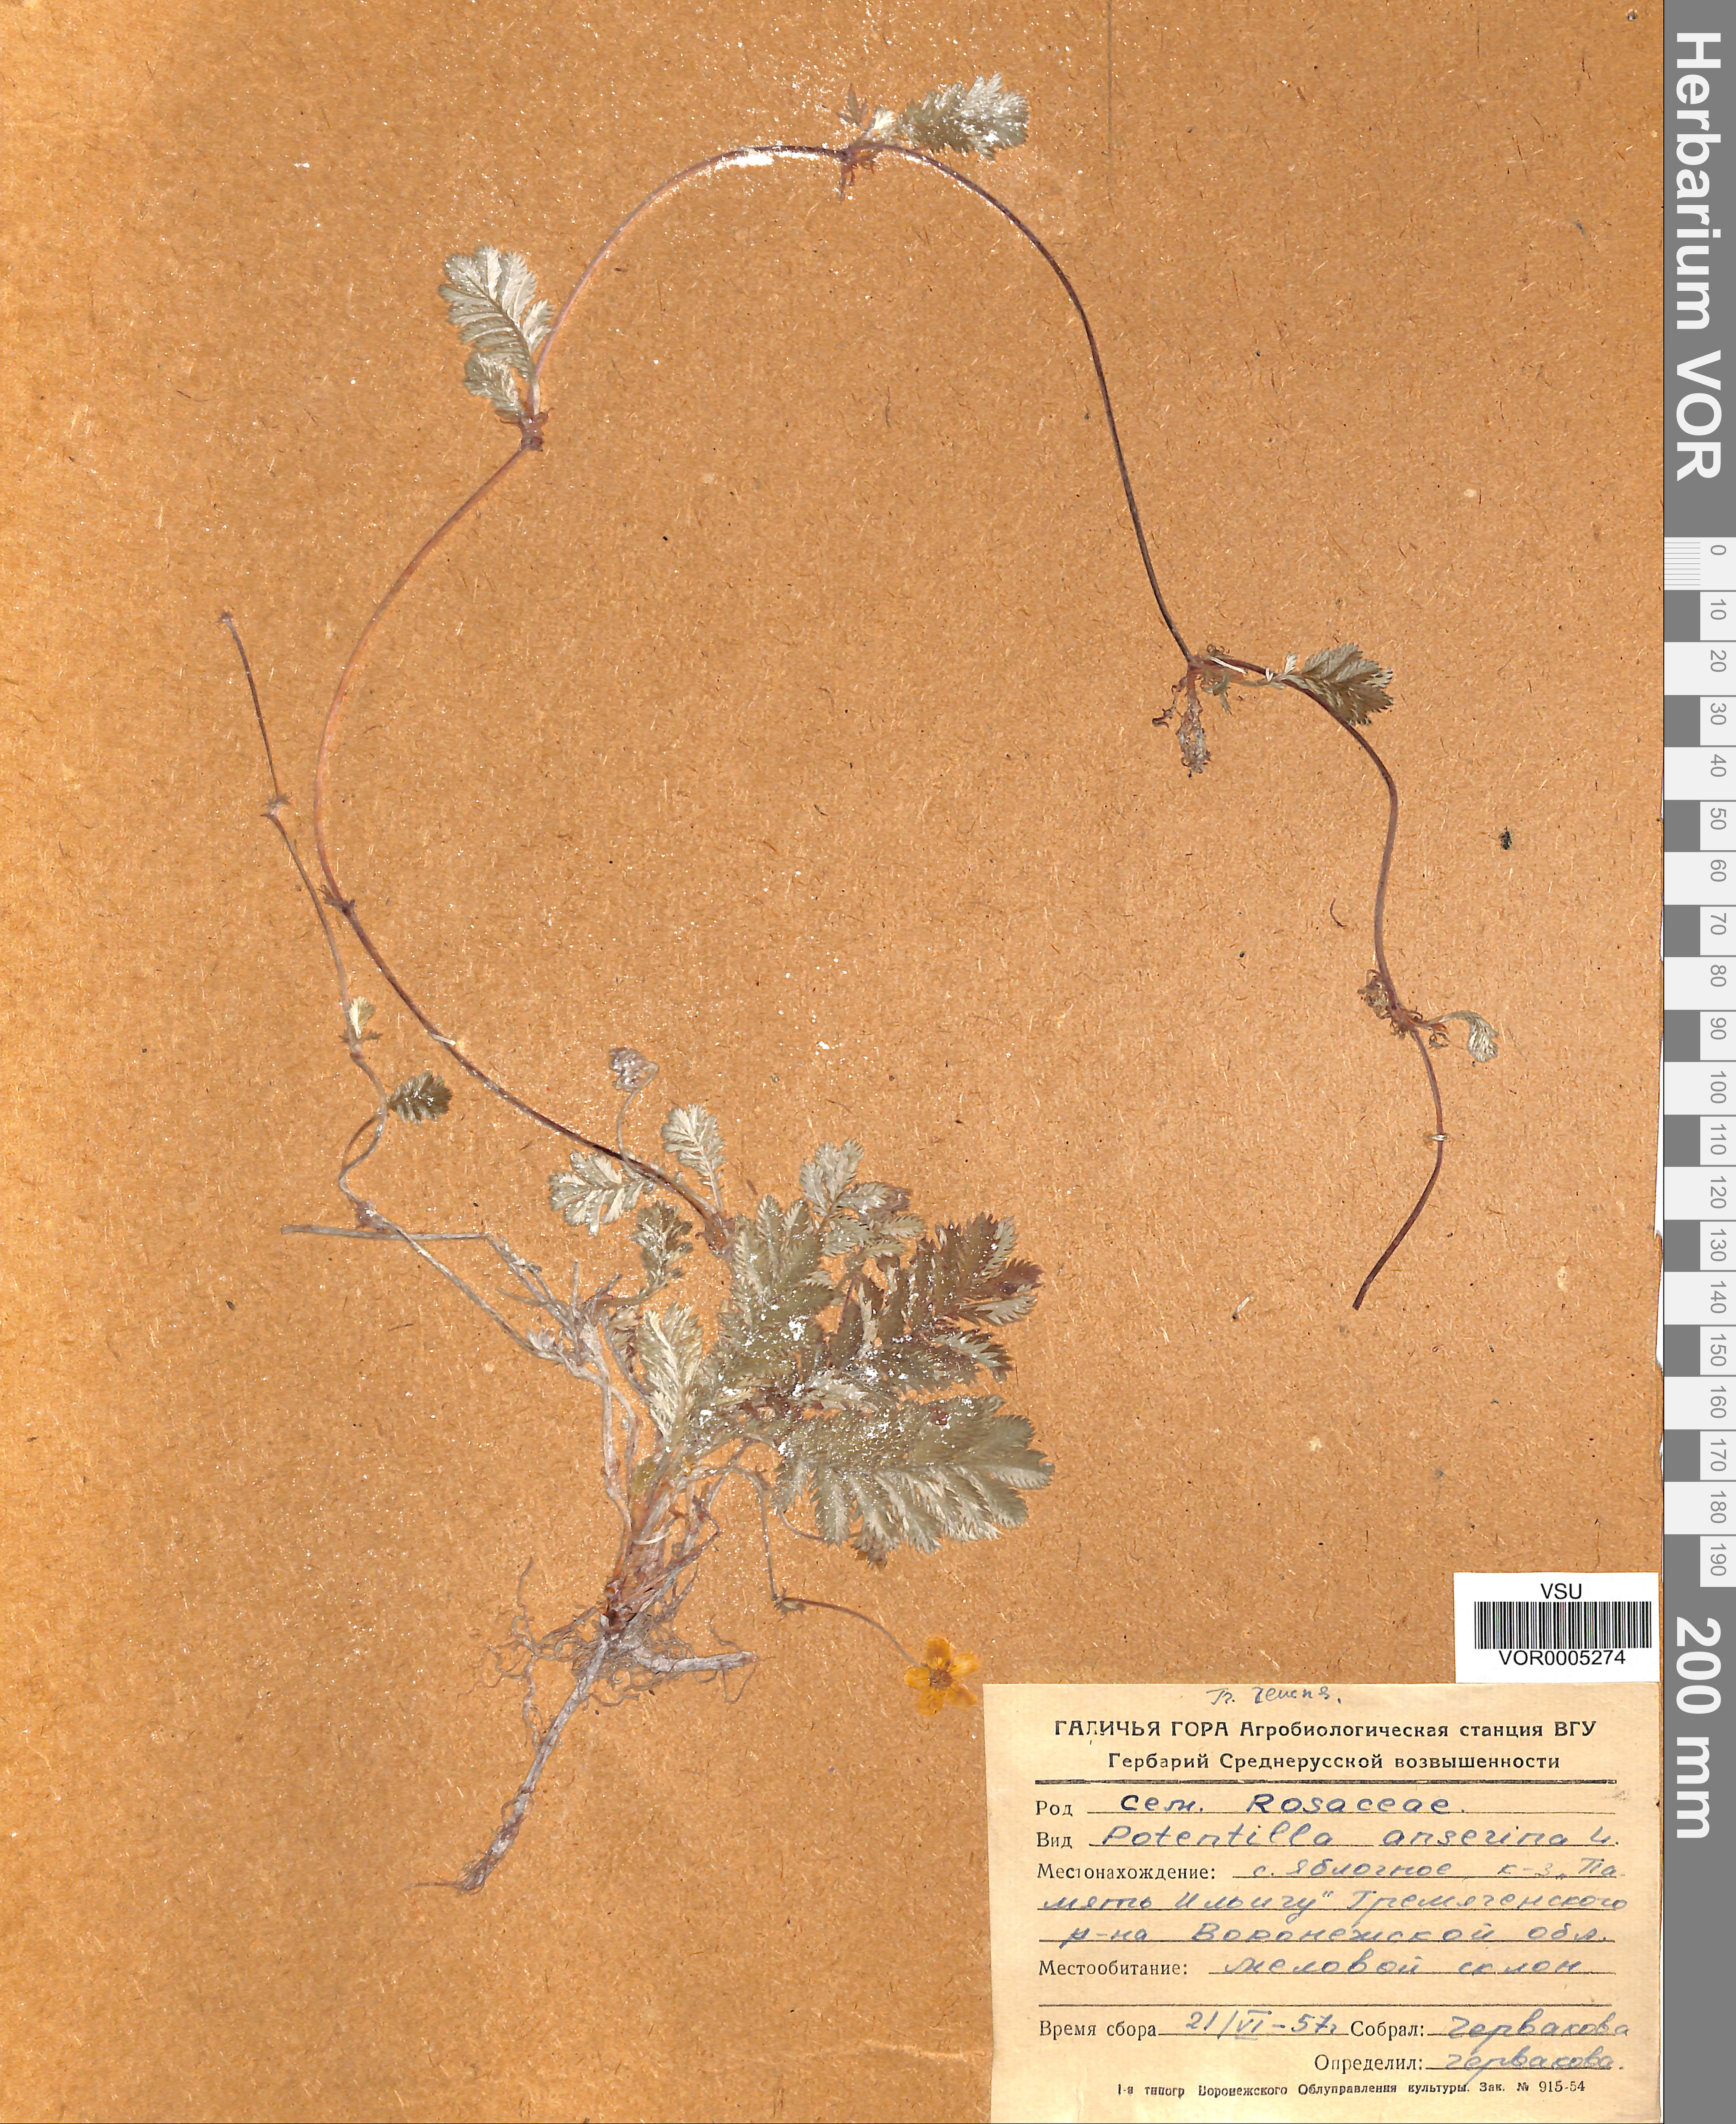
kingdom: Plantae
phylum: Tracheophyta
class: Magnoliopsida
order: Rosales
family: Rosaceae
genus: Argentina
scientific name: Argentina anserina
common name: Common silverweed
